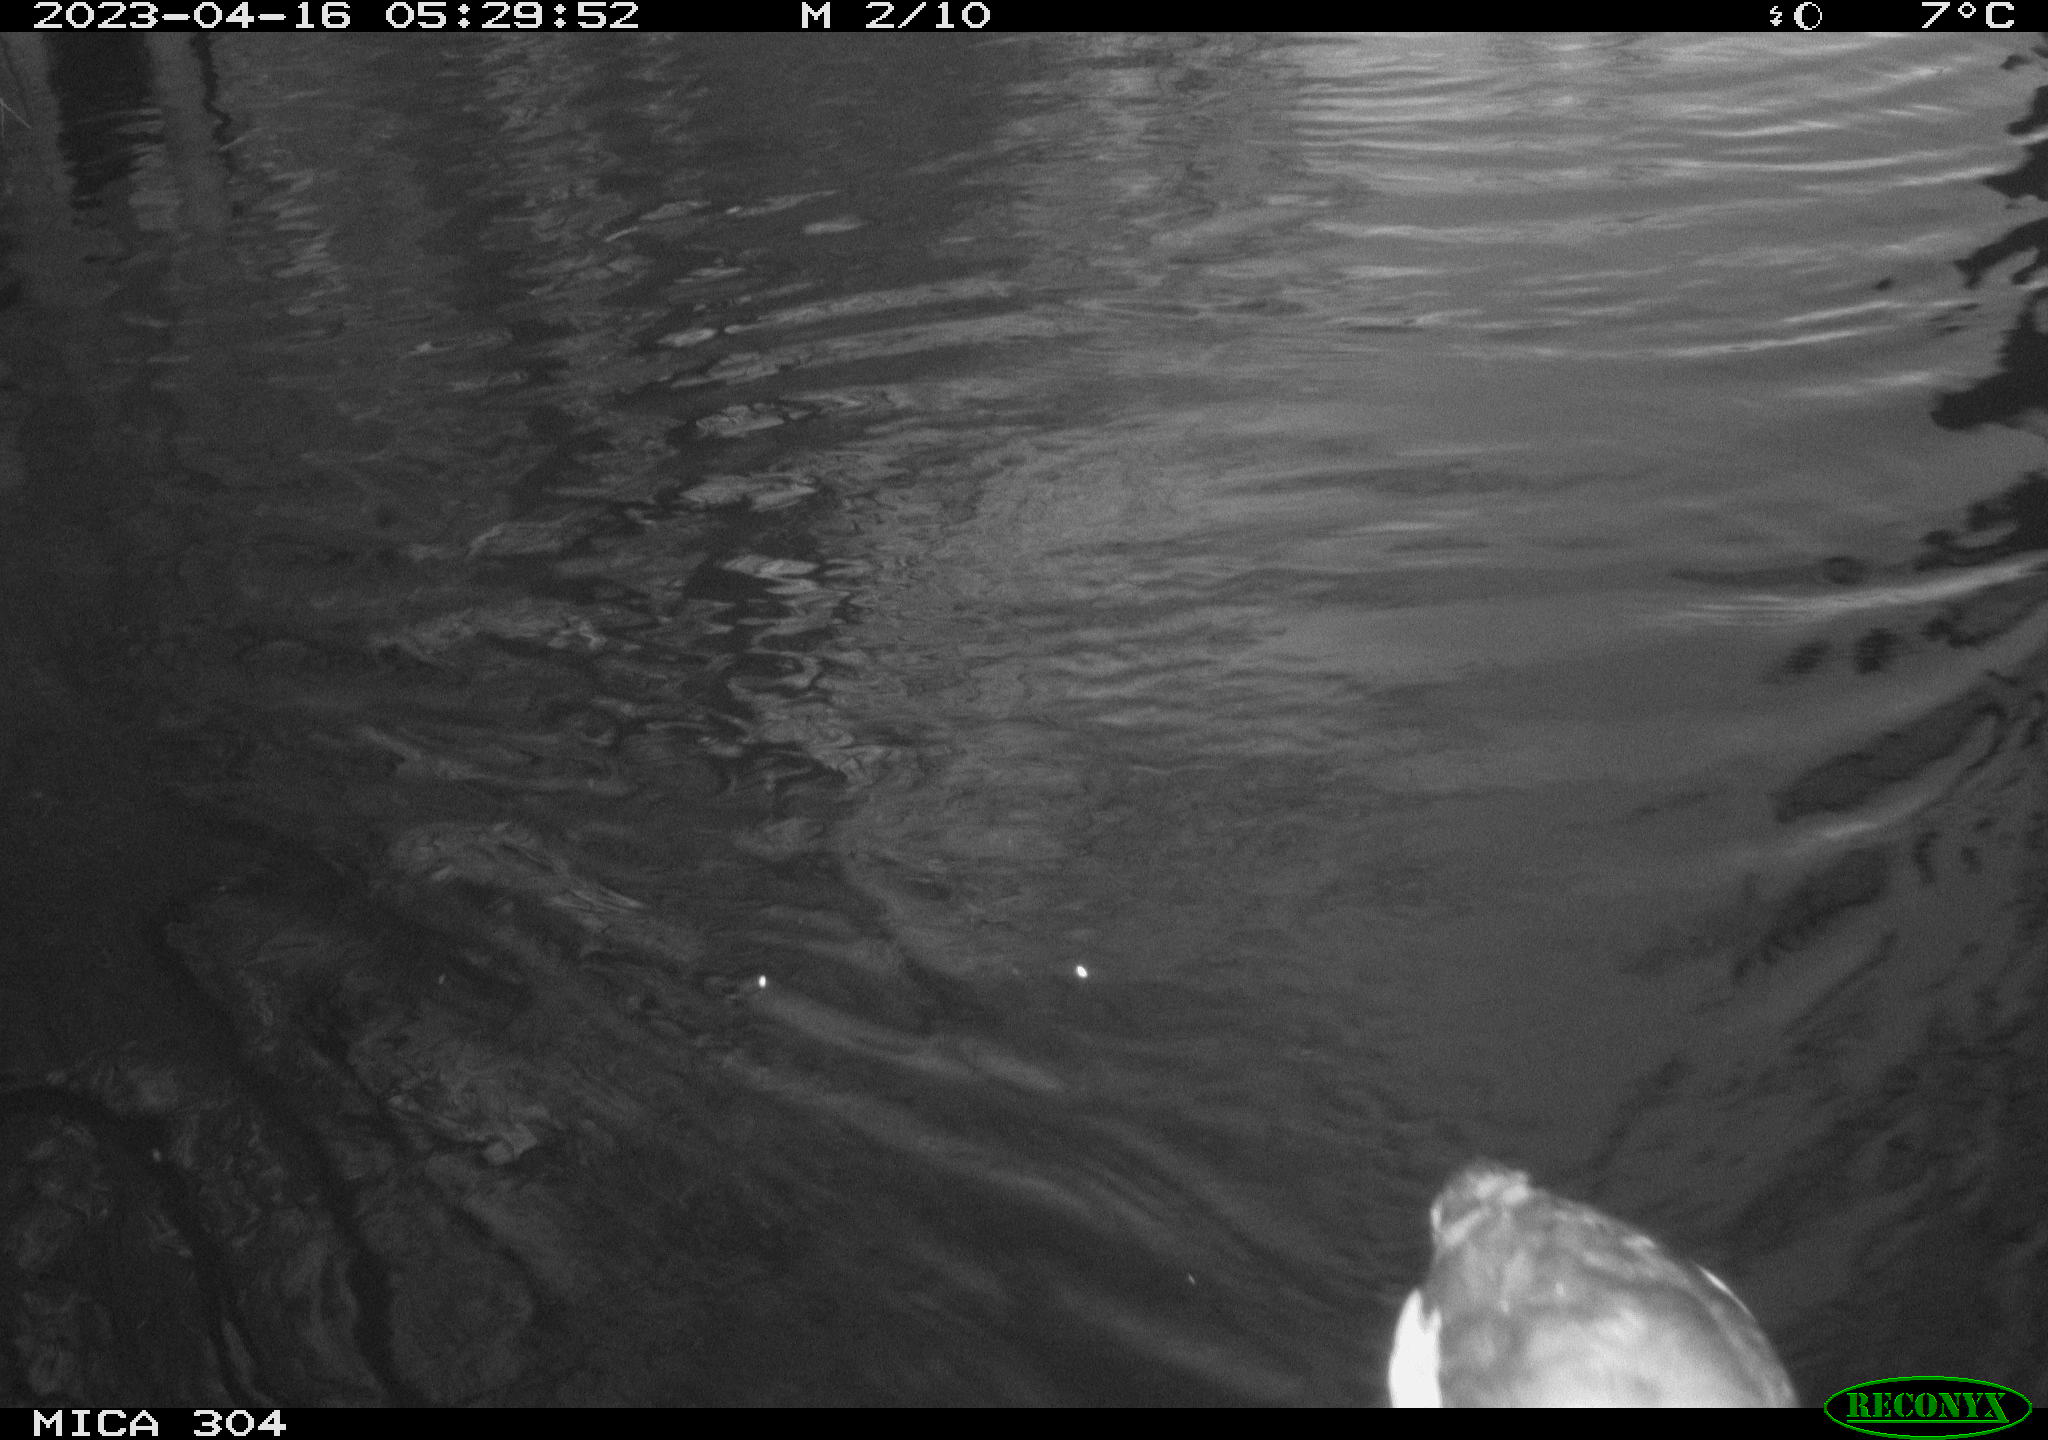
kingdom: Animalia
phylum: Chordata
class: Aves
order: Anseriformes
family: Anatidae
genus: Anas
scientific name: Anas
